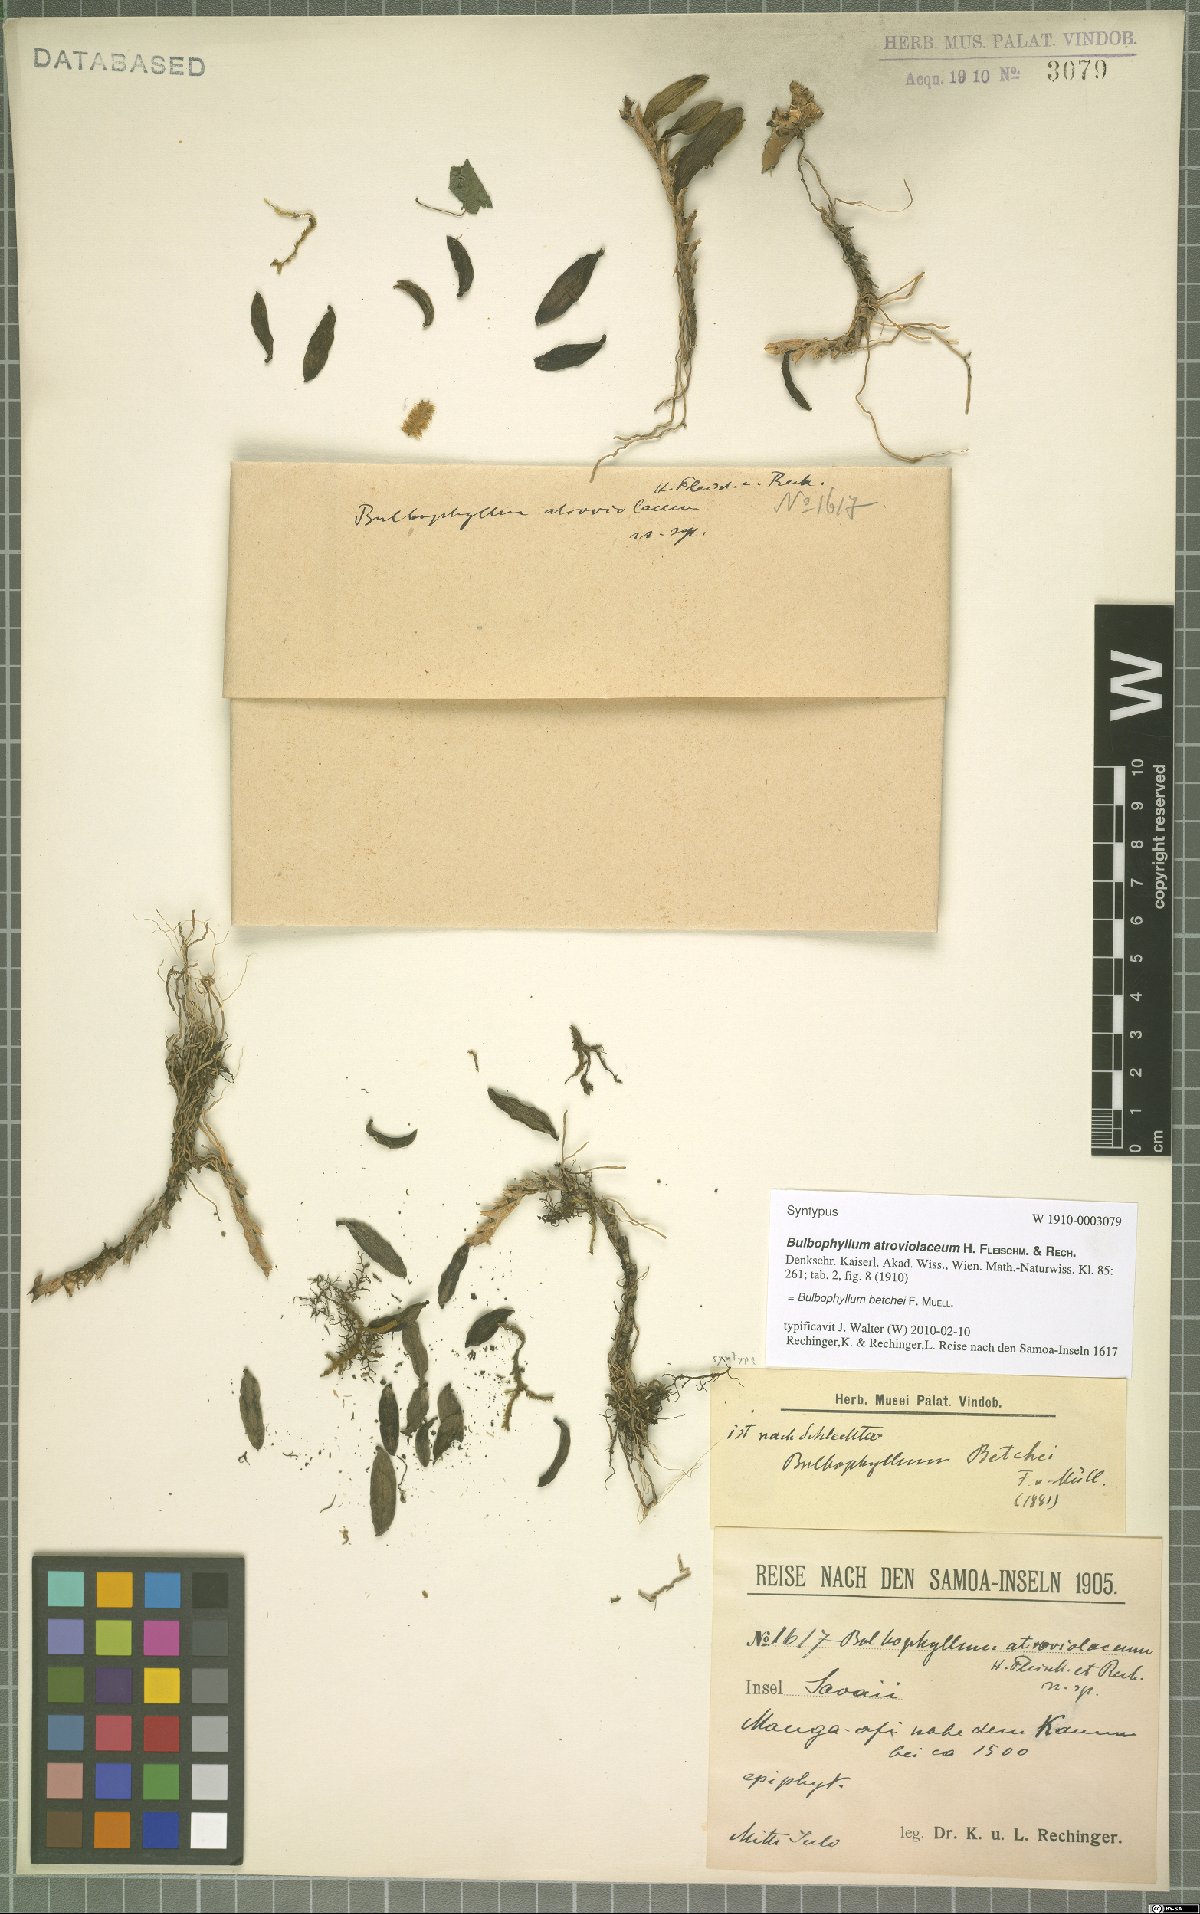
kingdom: Plantae
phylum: Tracheophyta
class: Liliopsida
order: Asparagales
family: Orchidaceae
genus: Bulbophyllum
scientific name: Bulbophyllum betchei
